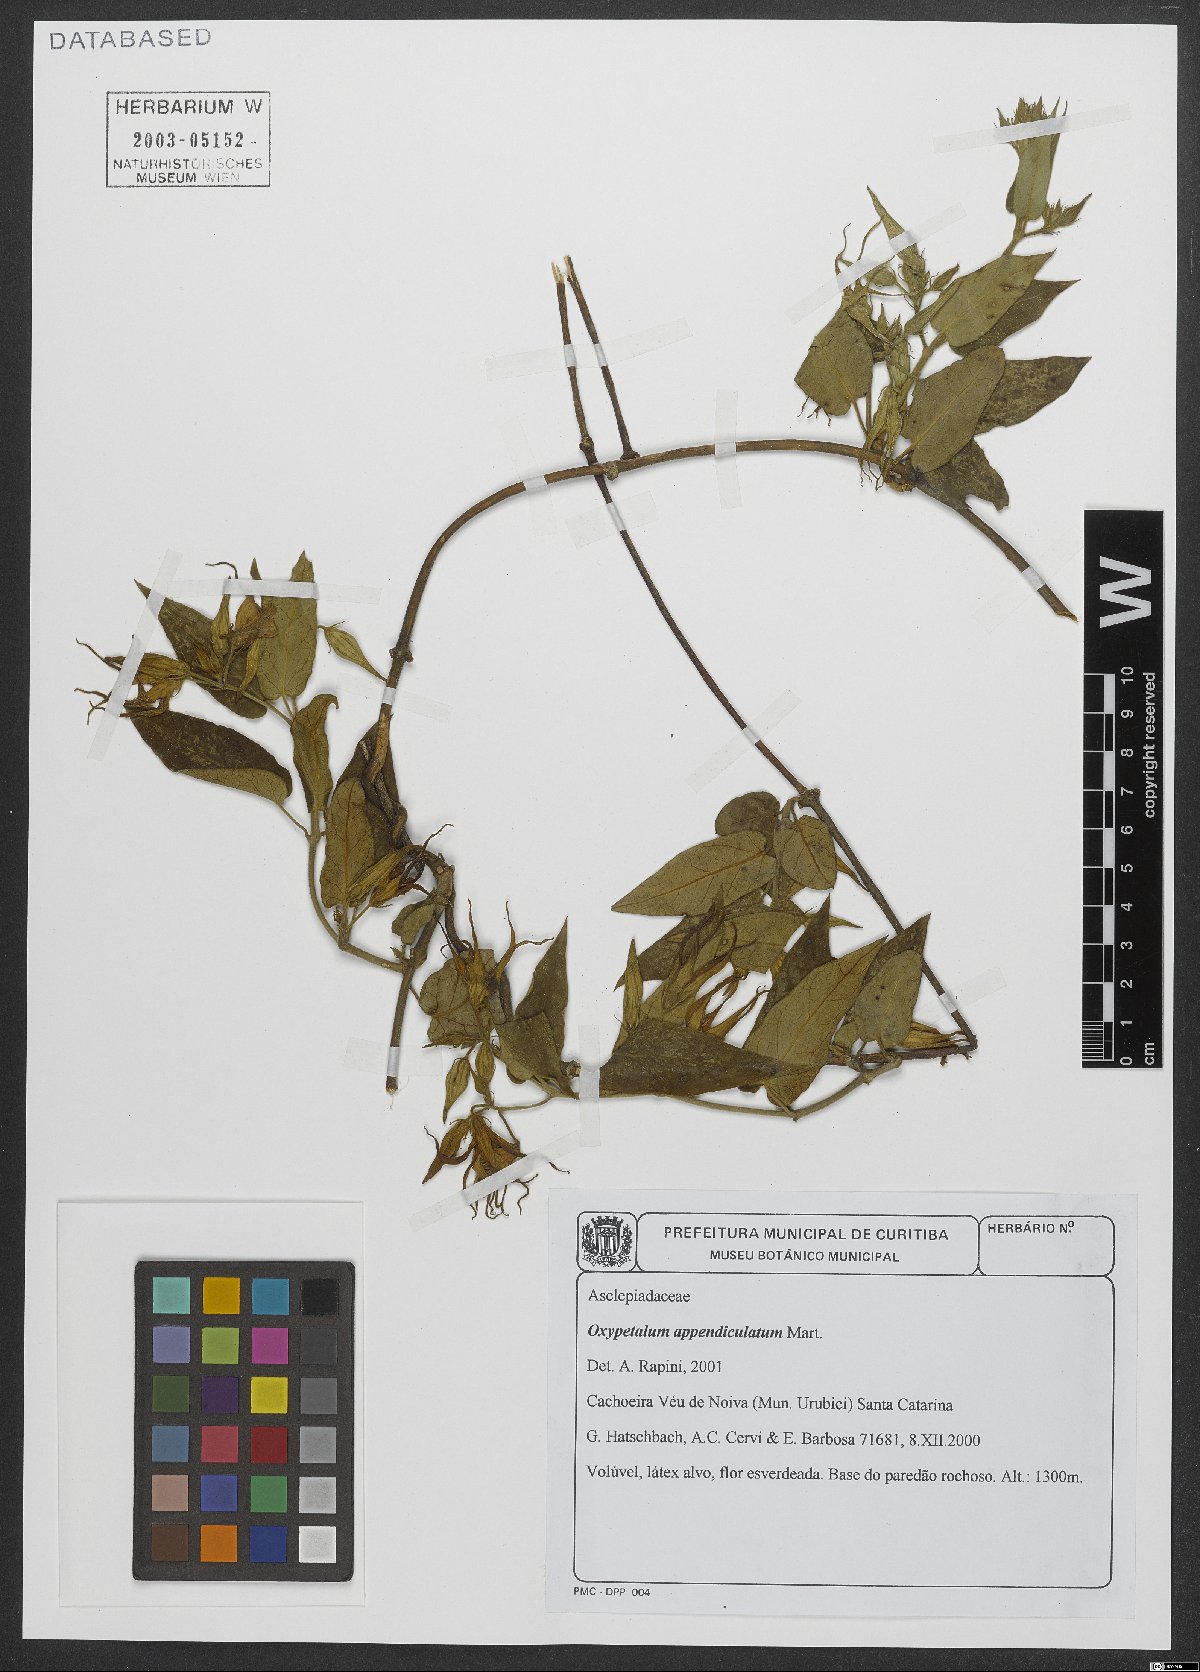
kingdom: Plantae
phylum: Tracheophyta
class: Magnoliopsida
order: Gentianales
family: Apocynaceae
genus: Oxypetalum
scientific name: Oxypetalum appendiculatum
